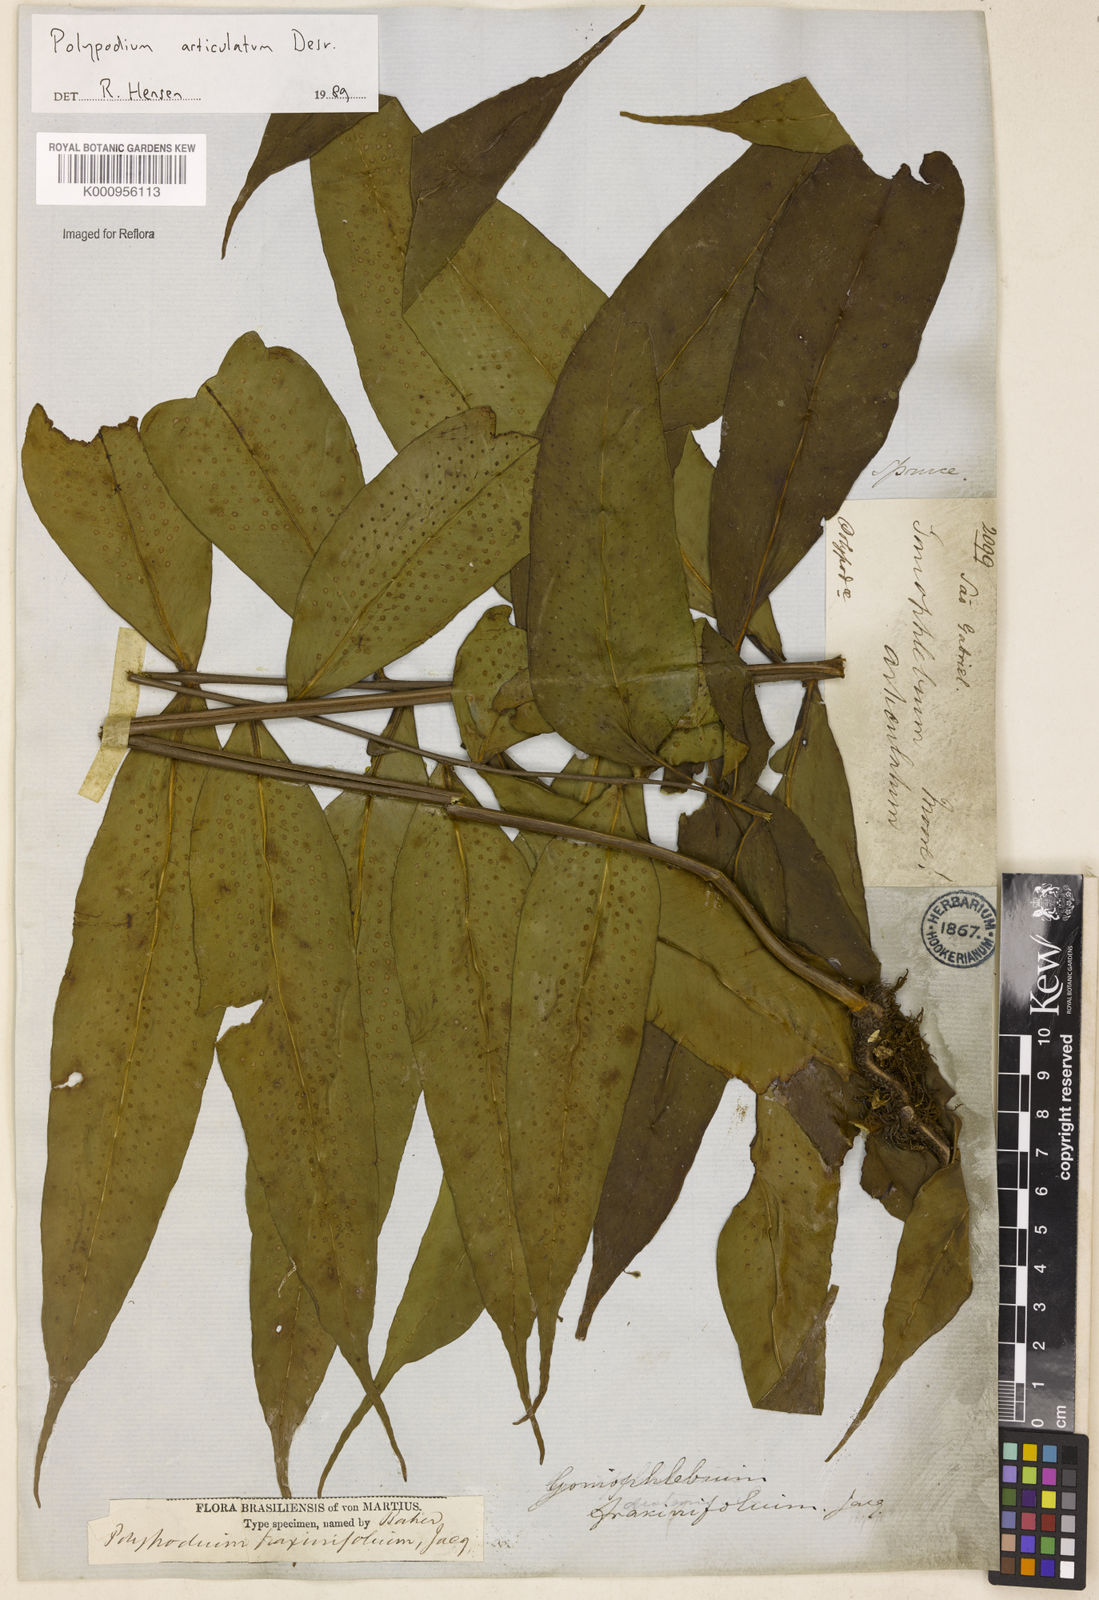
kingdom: Plantae
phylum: Tracheophyta
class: Polypodiopsida
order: Polypodiales
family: Polypodiaceae
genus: Polypodium
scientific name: Polypodium
